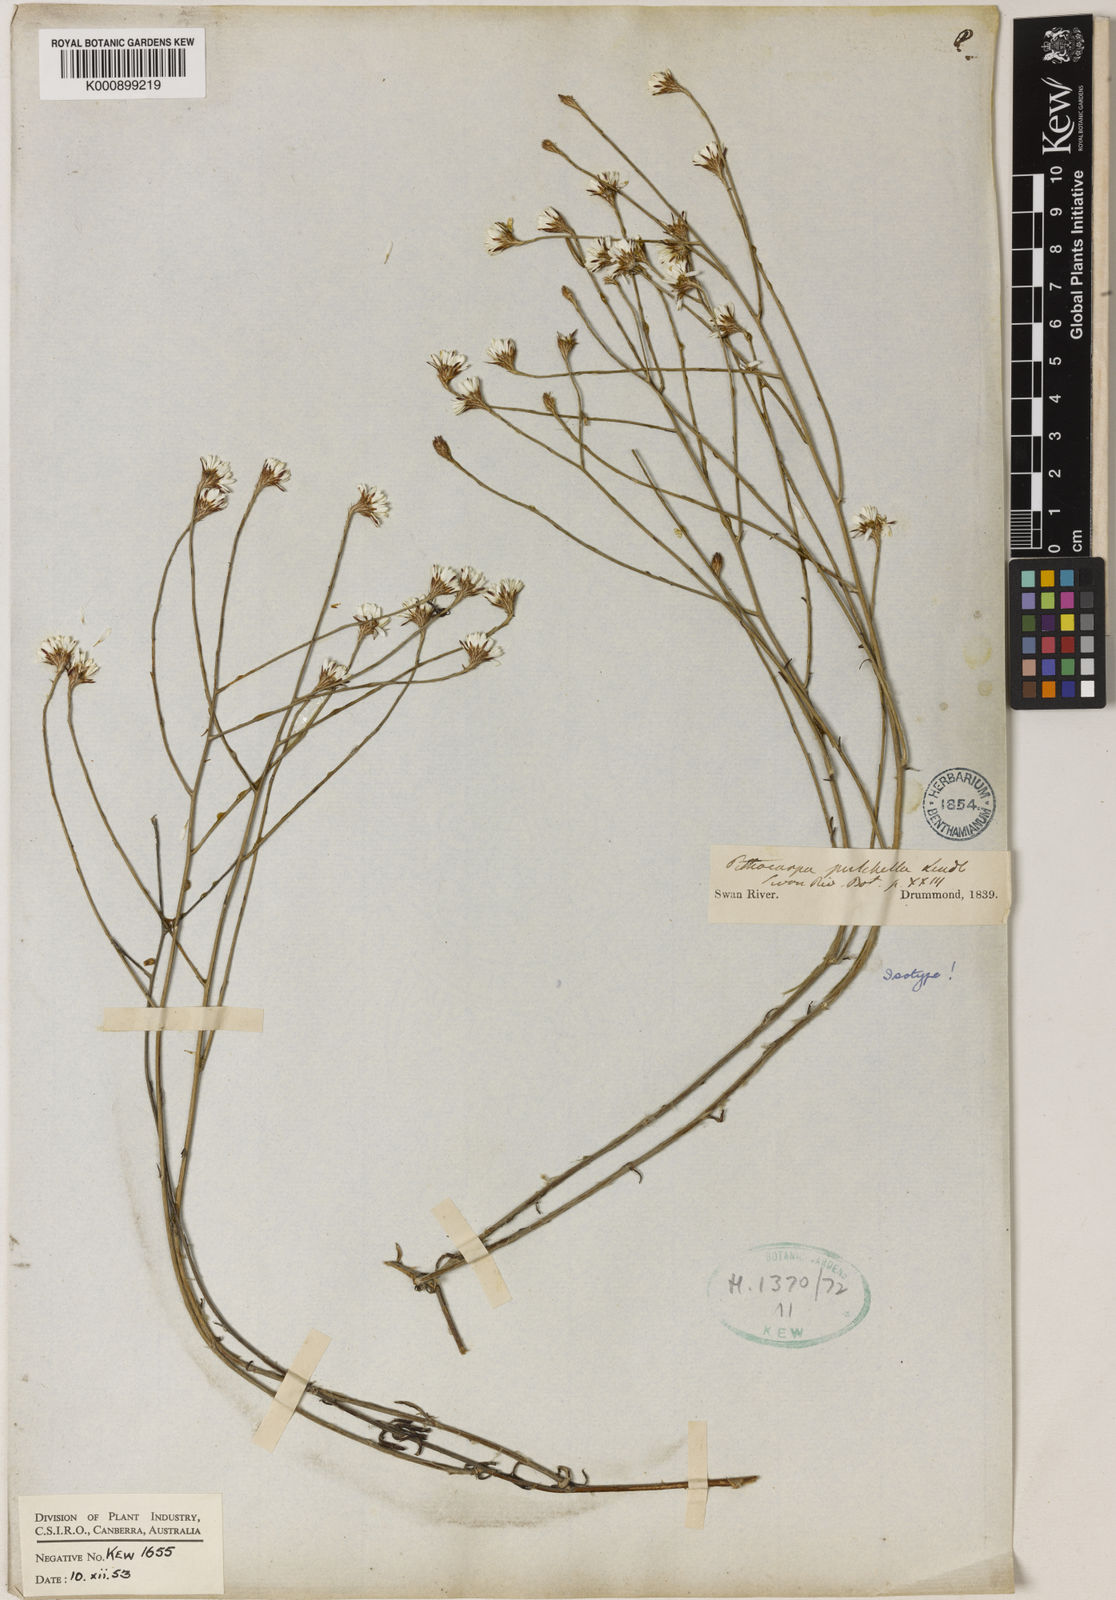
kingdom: Plantae
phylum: Tracheophyta
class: Magnoliopsida
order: Asterales
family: Asteraceae
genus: Pithocarpa
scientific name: Pithocarpa pulchella
